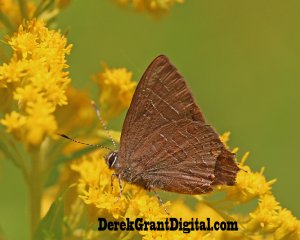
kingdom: Animalia
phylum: Arthropoda
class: Insecta
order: Lepidoptera
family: Lycaenidae
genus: Satyrium
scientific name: Satyrium liparops
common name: Striped Hairstreak
